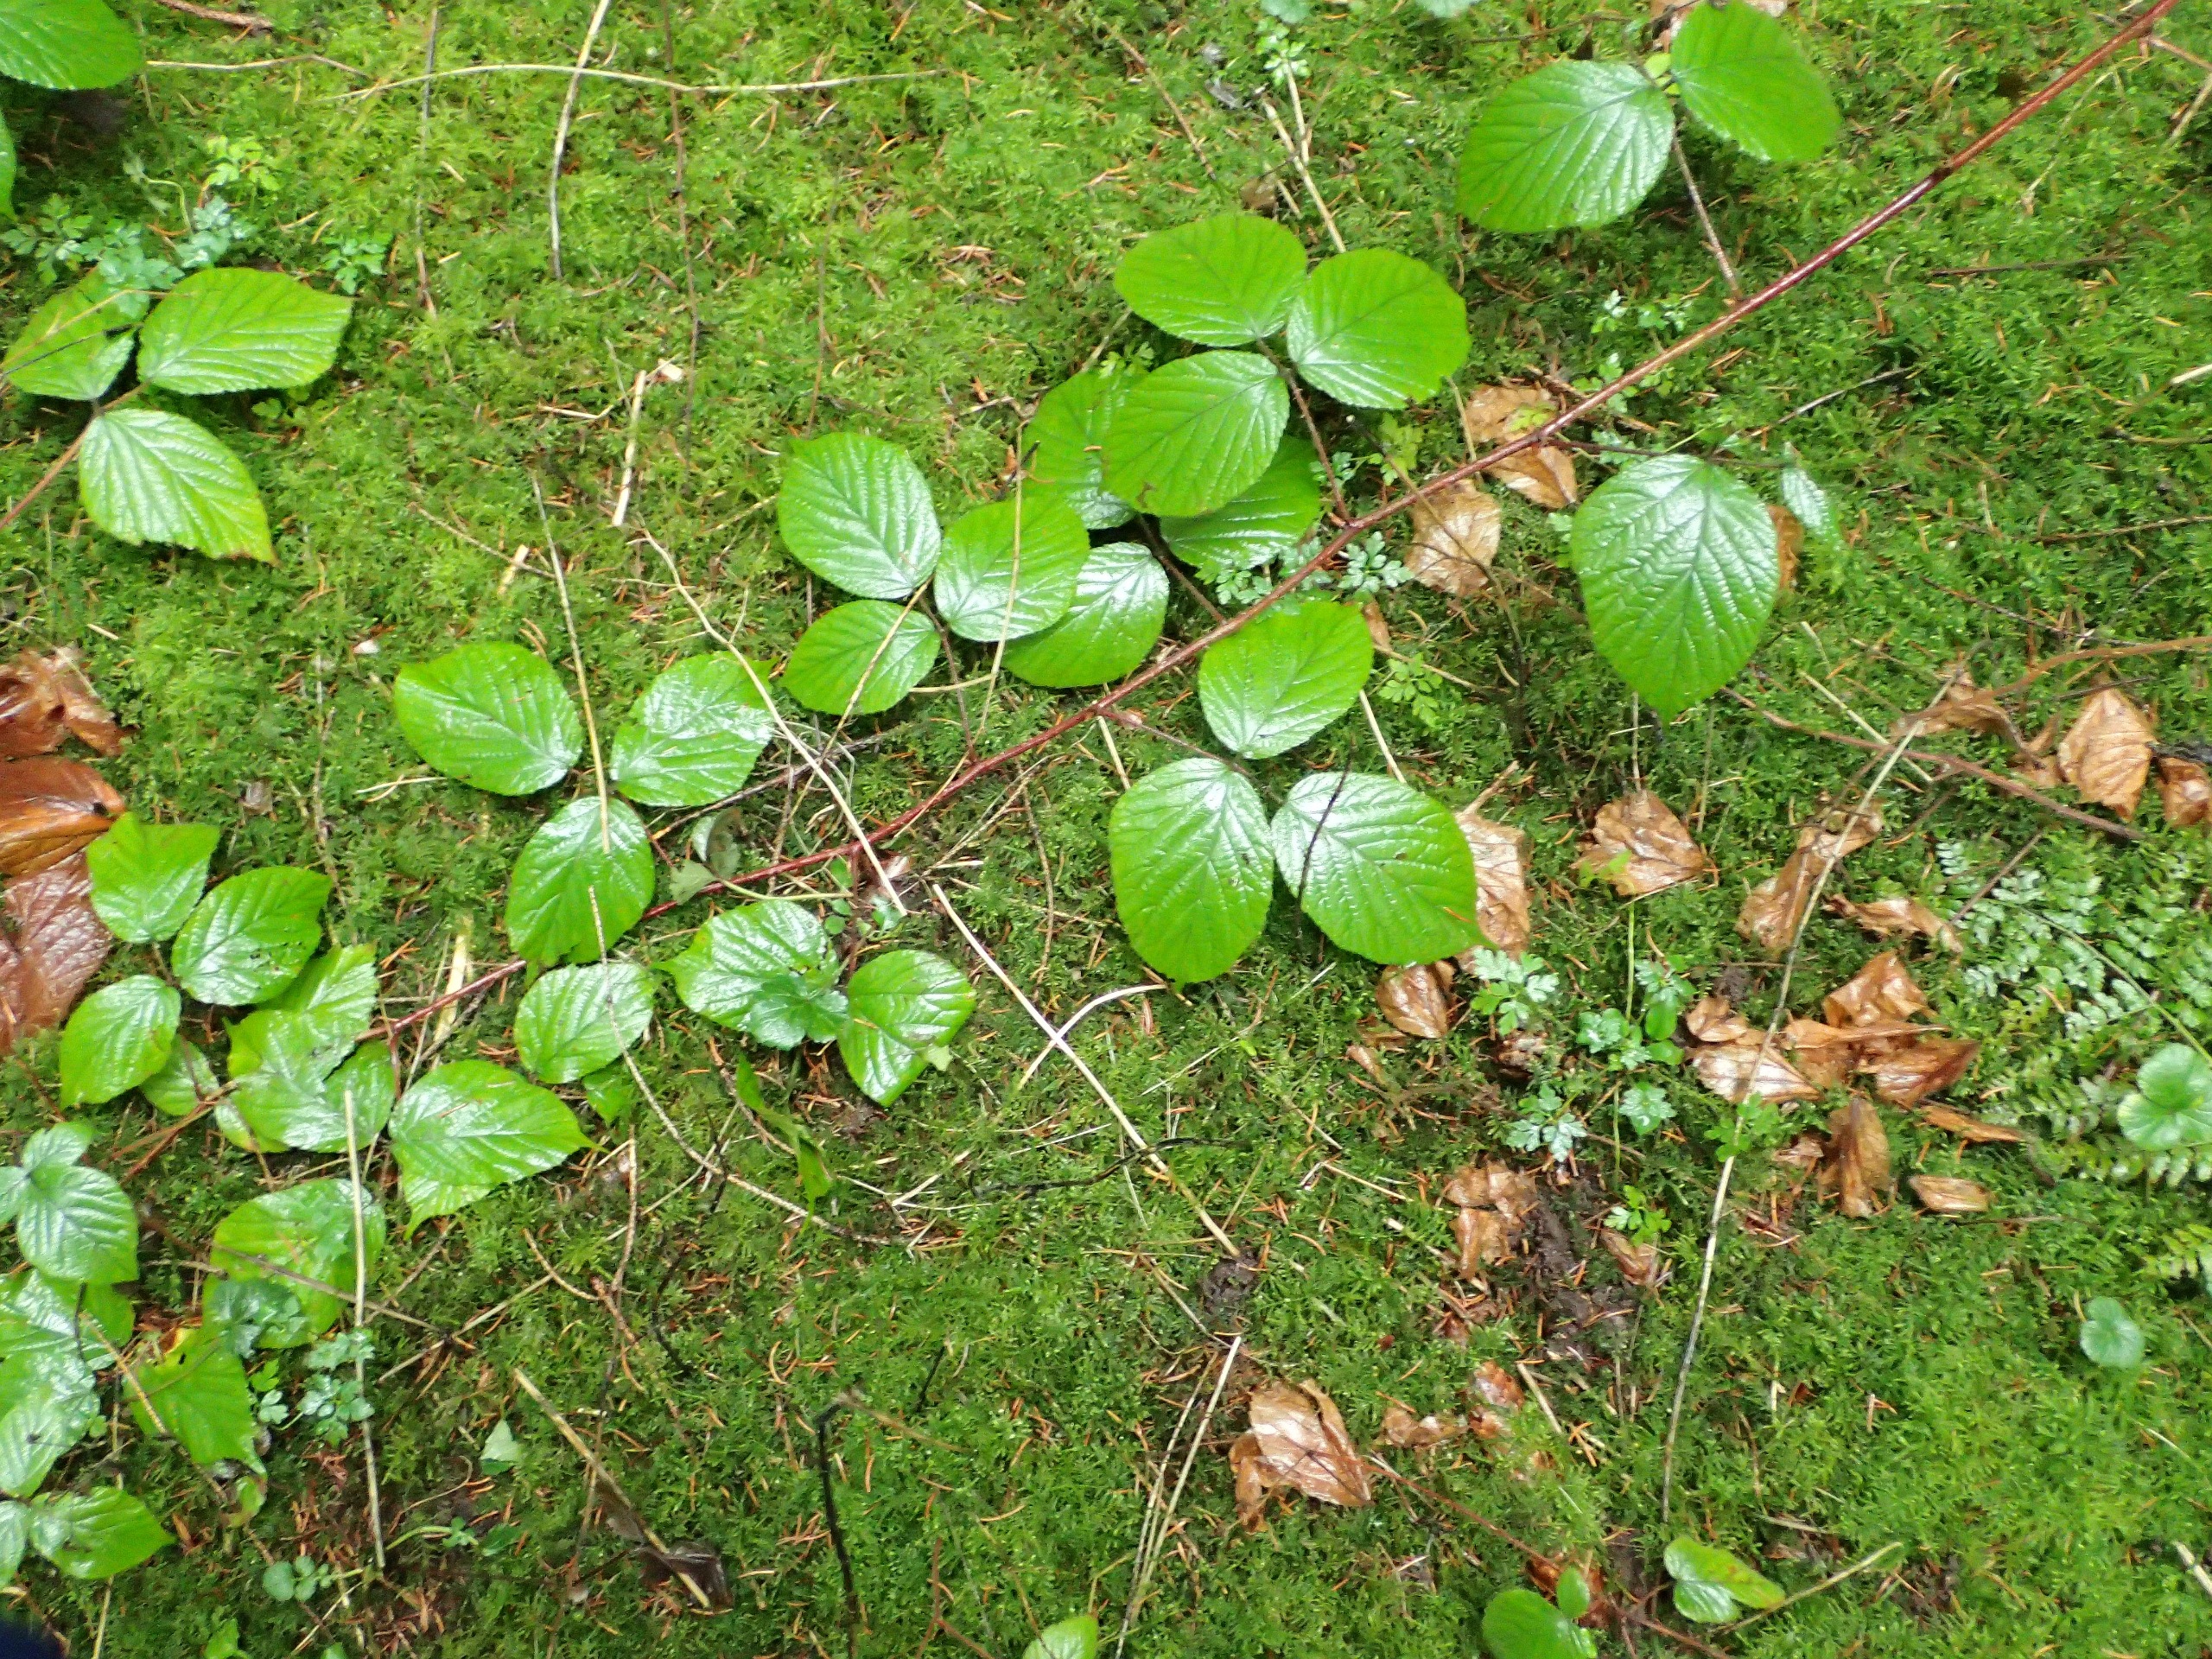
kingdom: Plantae
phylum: Tracheophyta
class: Magnoliopsida
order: Rosales
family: Rosaceae
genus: Rubus
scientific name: Rubus nigricans
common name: Trebladet brombær
